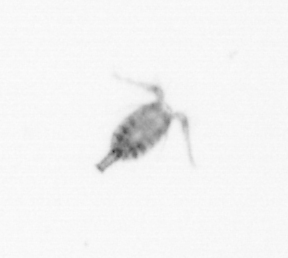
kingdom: Animalia
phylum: Arthropoda
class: Copepoda
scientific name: Copepoda
